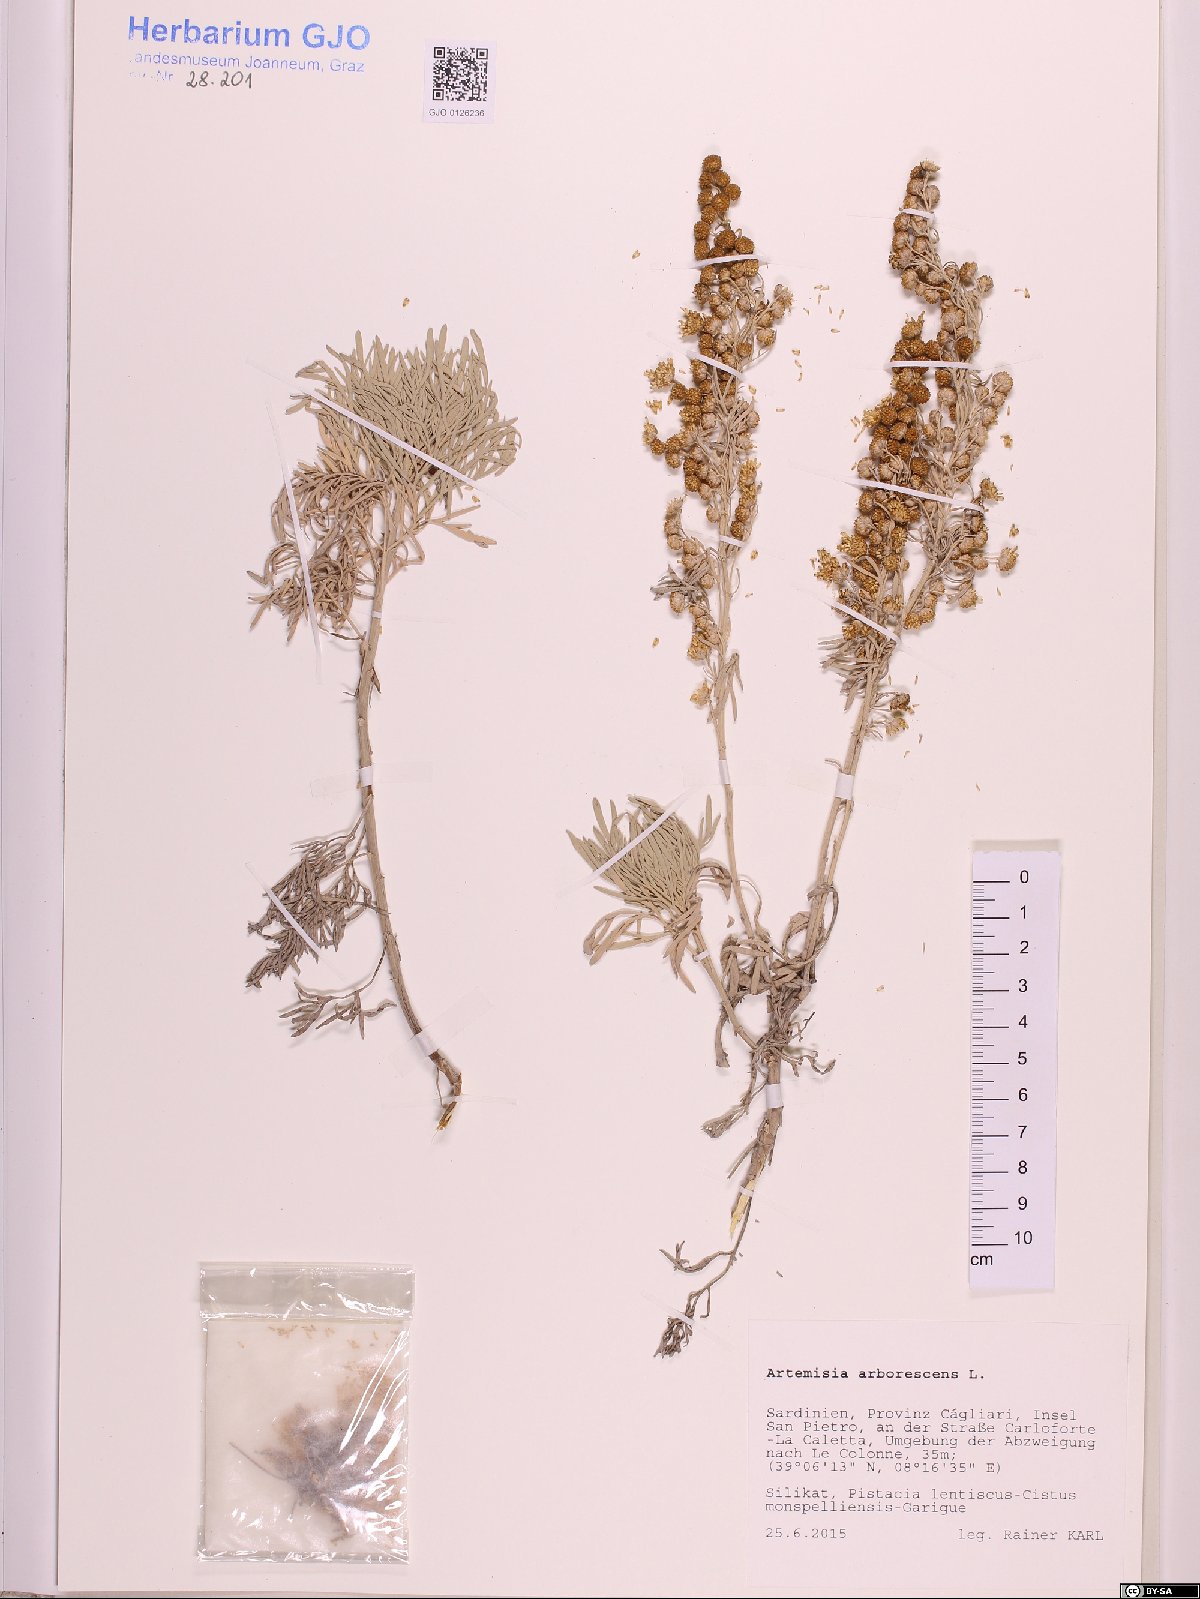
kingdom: Plantae
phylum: Tracheophyta
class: Magnoliopsida
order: Asterales
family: Asteraceae
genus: Artemisia
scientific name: Artemisia arborescens
